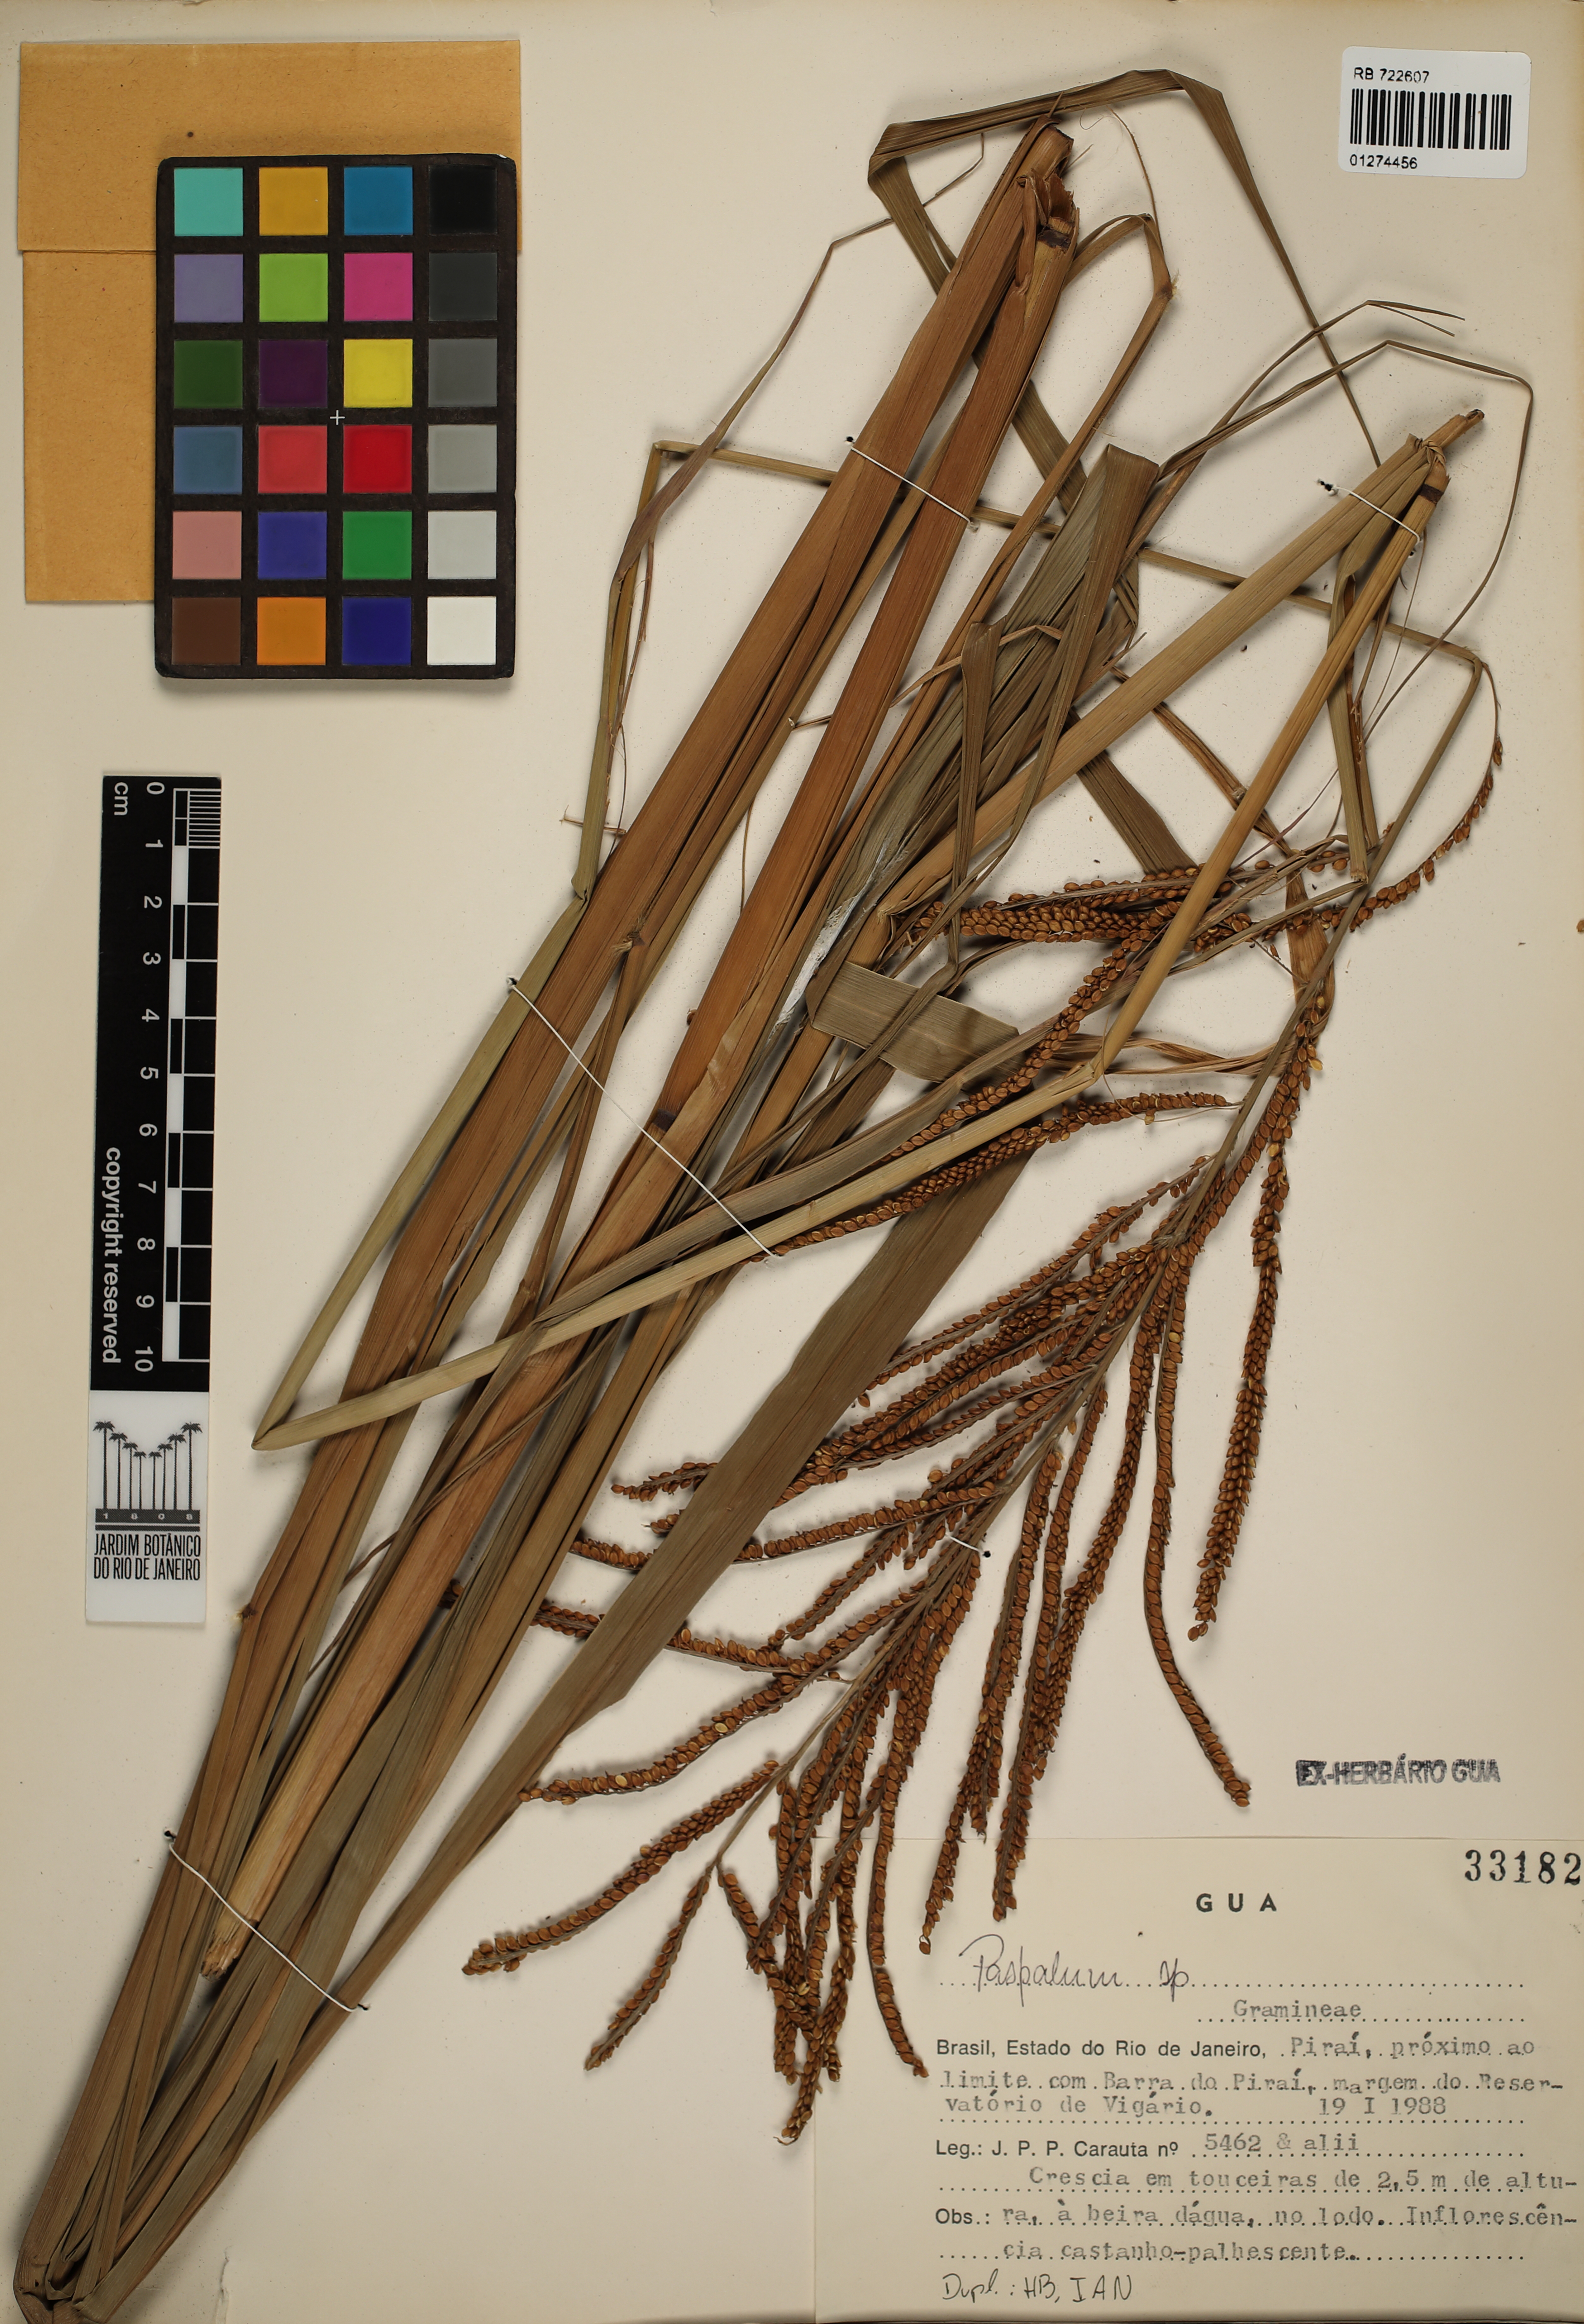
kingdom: Plantae
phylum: Tracheophyta
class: Liliopsida
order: Poales
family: Poaceae
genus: Paspalum
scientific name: Paspalum
